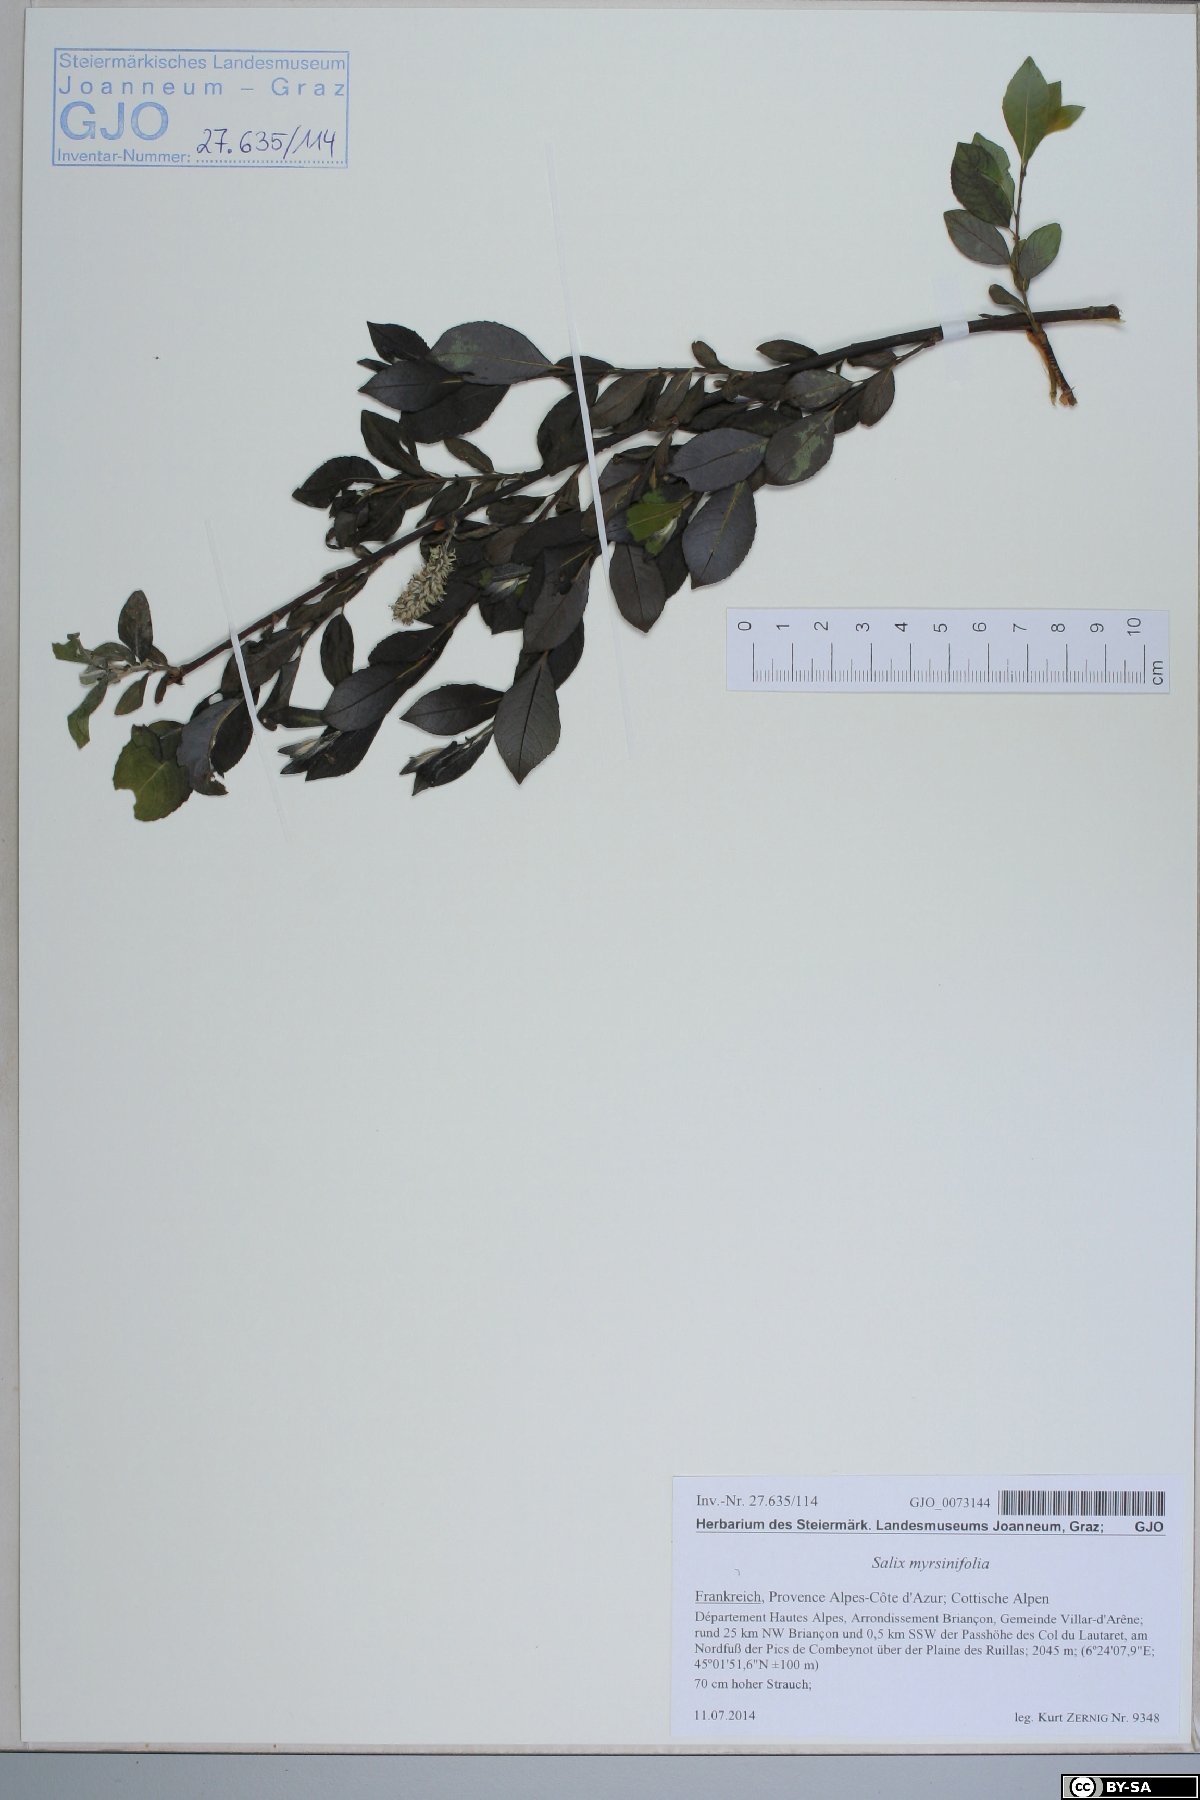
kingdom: Plantae
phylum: Tracheophyta
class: Magnoliopsida
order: Malpighiales
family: Salicaceae
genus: Salix
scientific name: Salix myrsinifolia
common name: Dark-leaved willow
